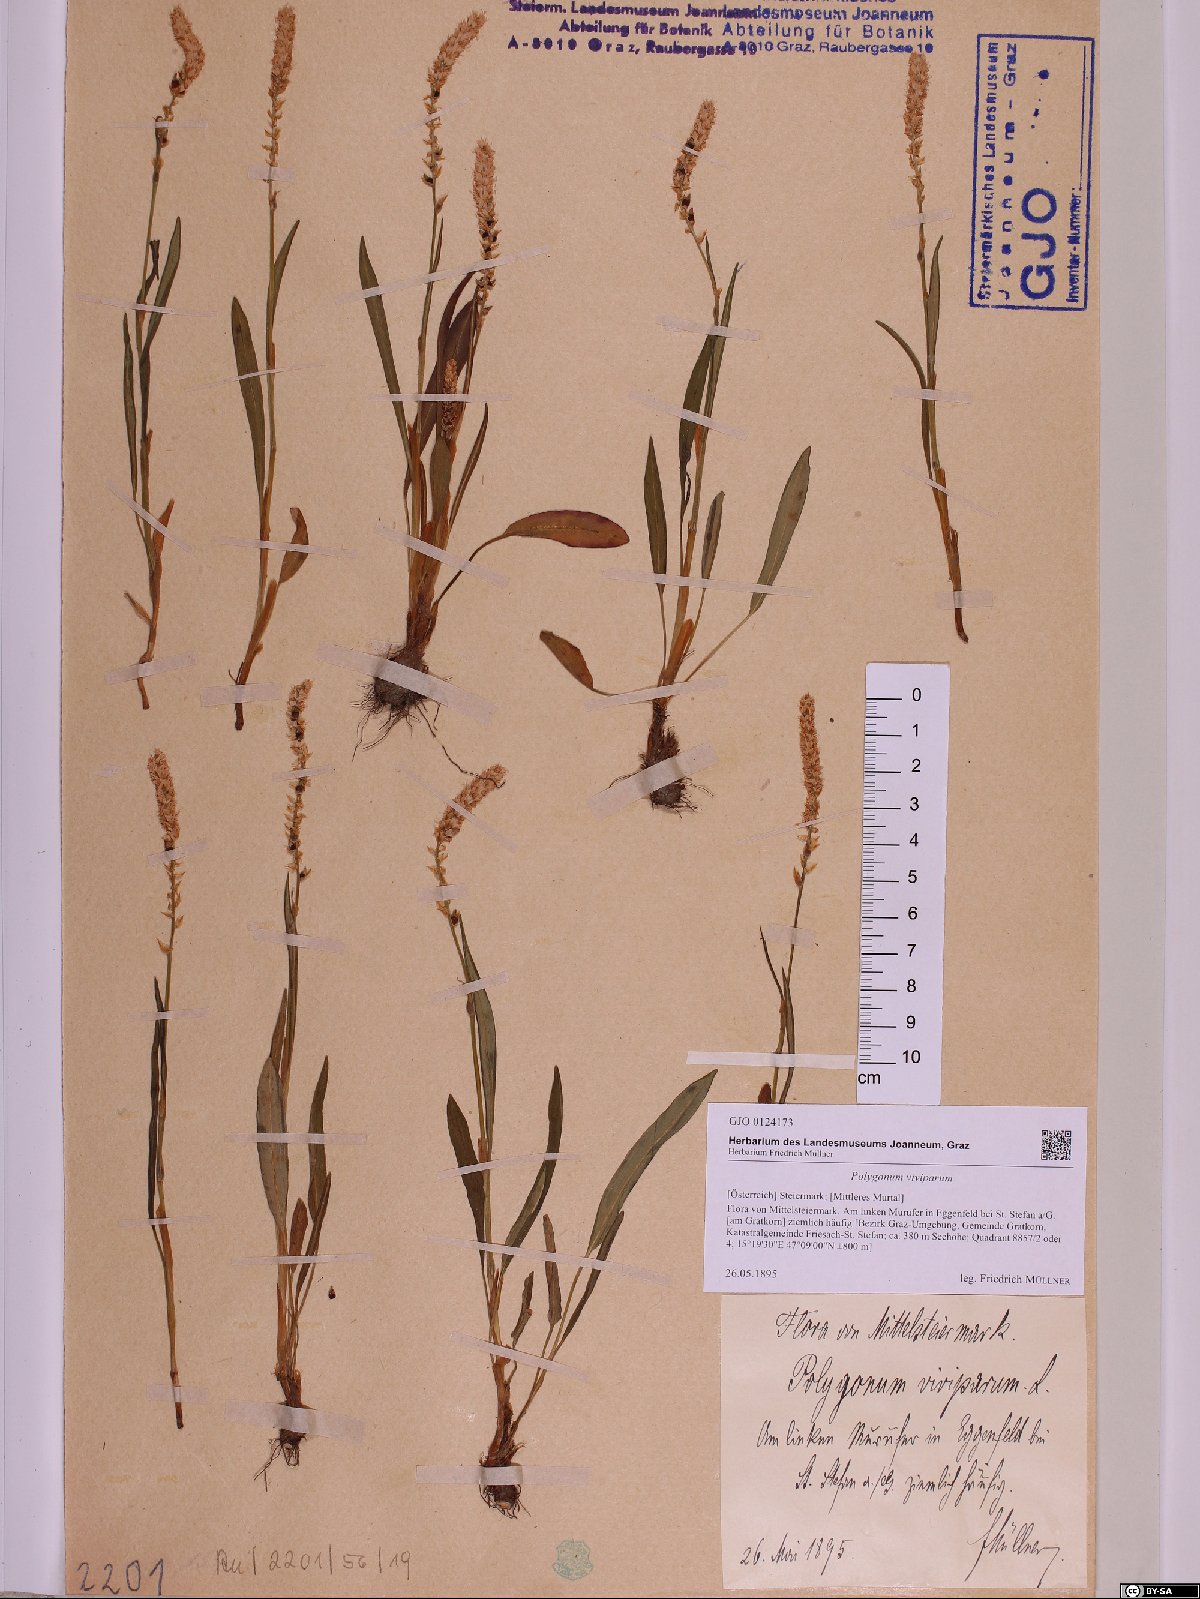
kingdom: Plantae
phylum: Tracheophyta
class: Magnoliopsida
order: Caryophyllales
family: Polygonaceae
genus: Bistorta
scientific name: Bistorta vivipara
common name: Alpine bistort
